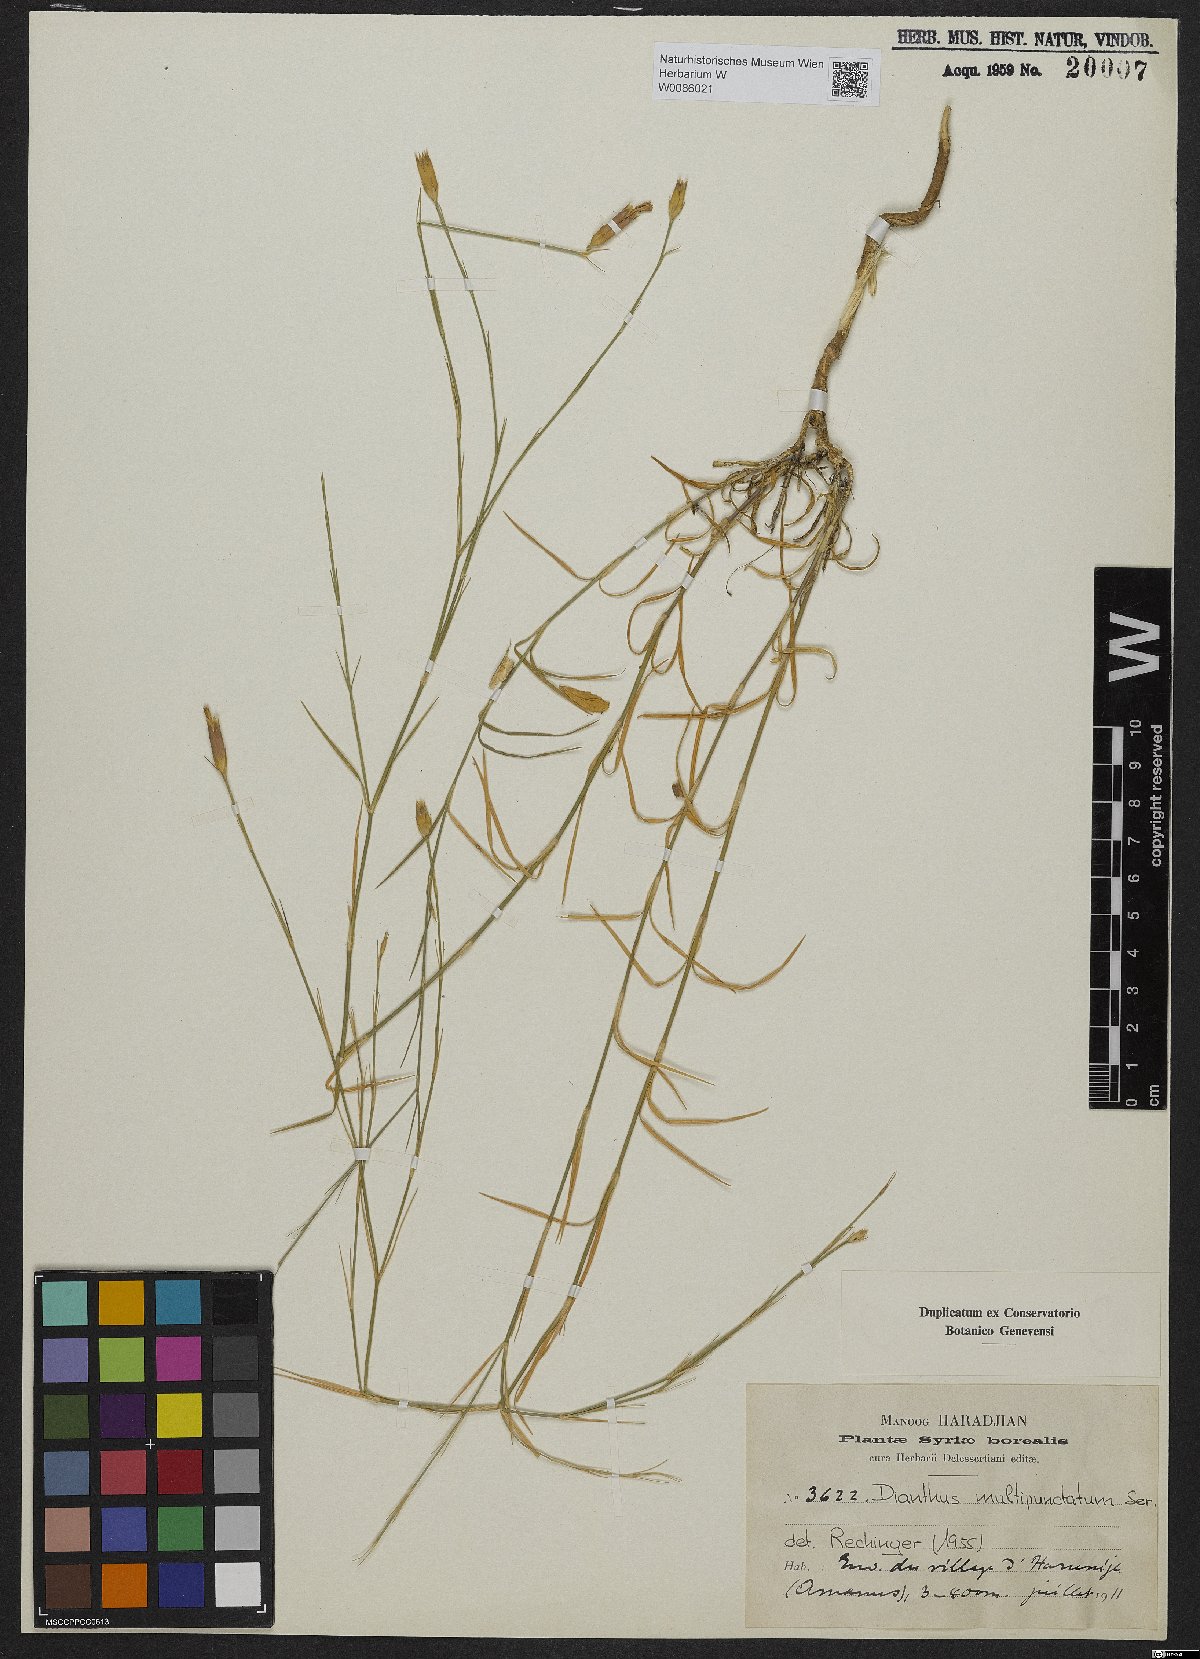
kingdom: Plantae
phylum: Tracheophyta
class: Magnoliopsida
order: Caryophyllales
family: Caryophyllaceae
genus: Dianthus
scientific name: Dianthus strictus
